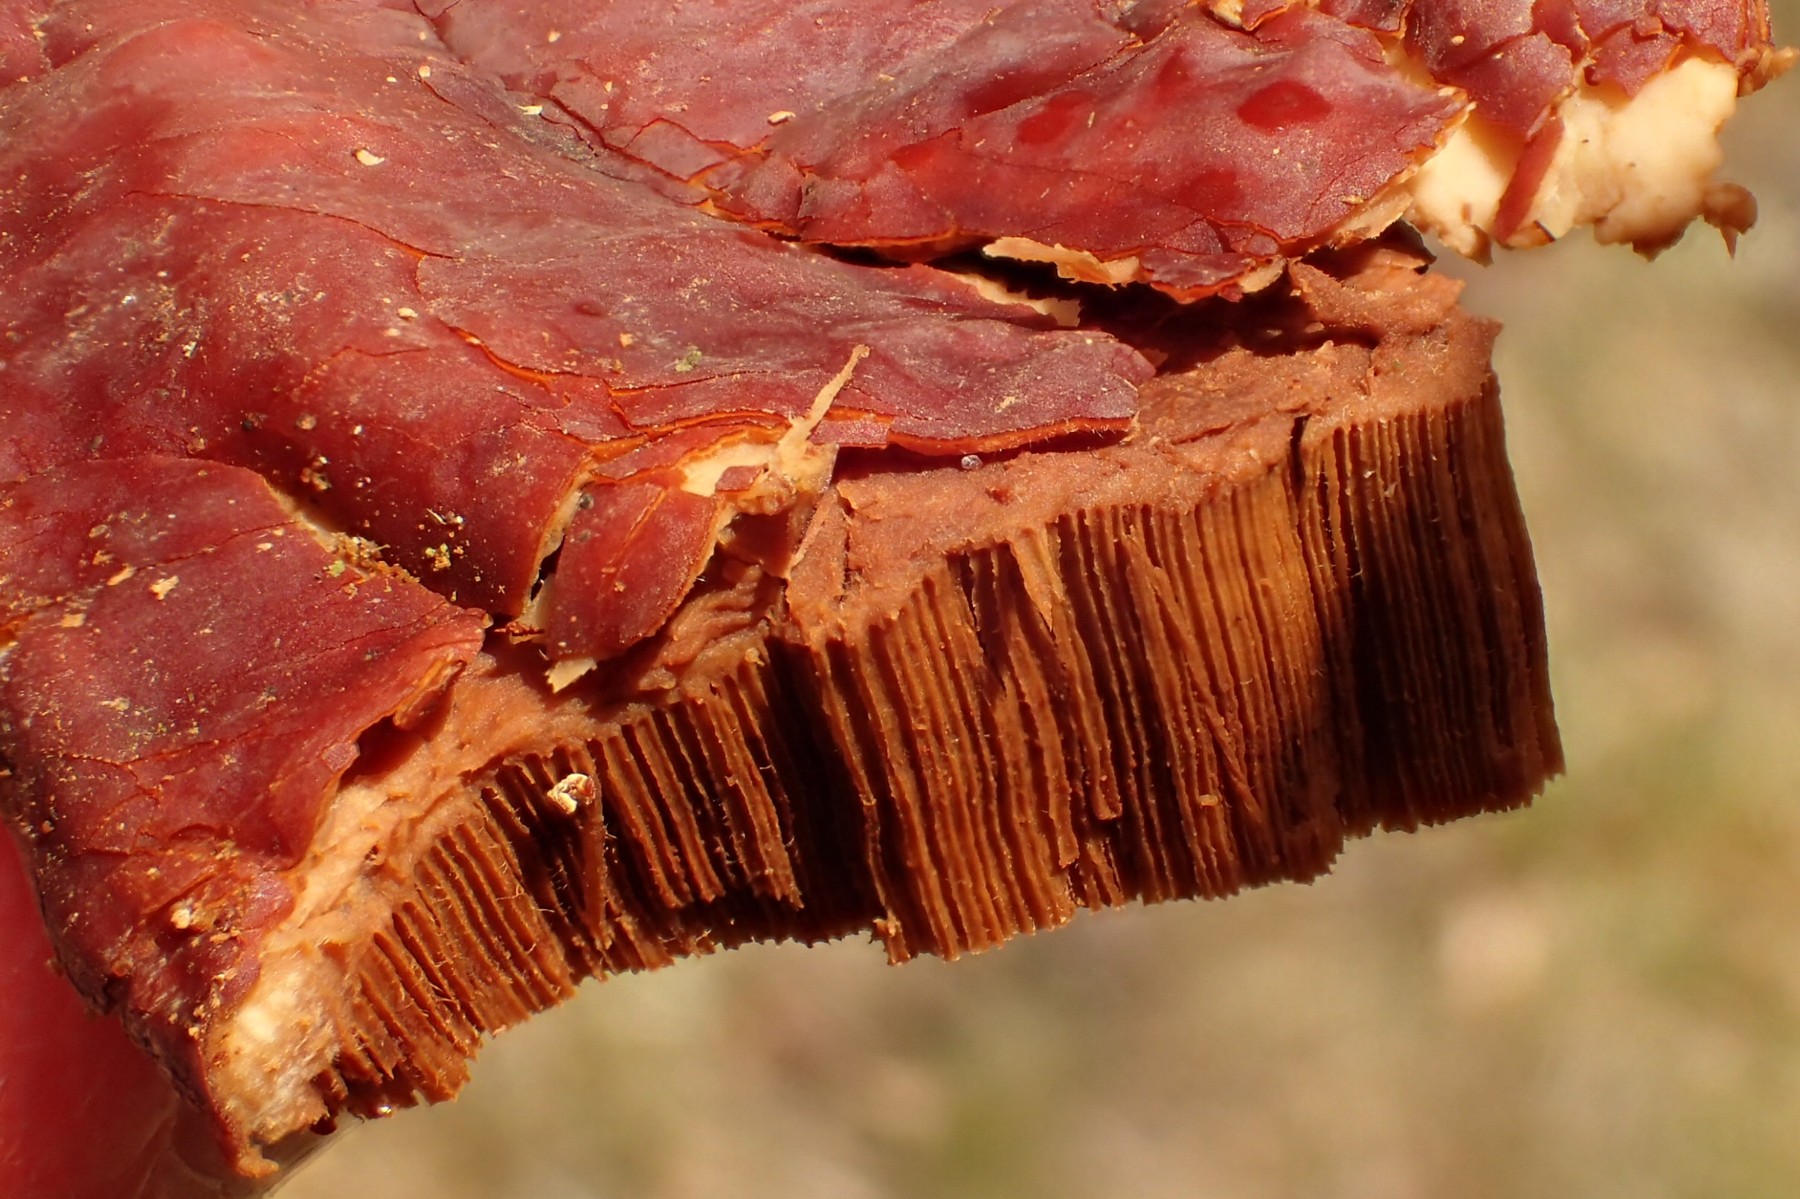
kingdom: Fungi
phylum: Basidiomycota
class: Agaricomycetes
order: Polyporales
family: Polyporaceae
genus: Ganoderma
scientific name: Ganoderma lucidum
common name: skinnende lakporesvamp
